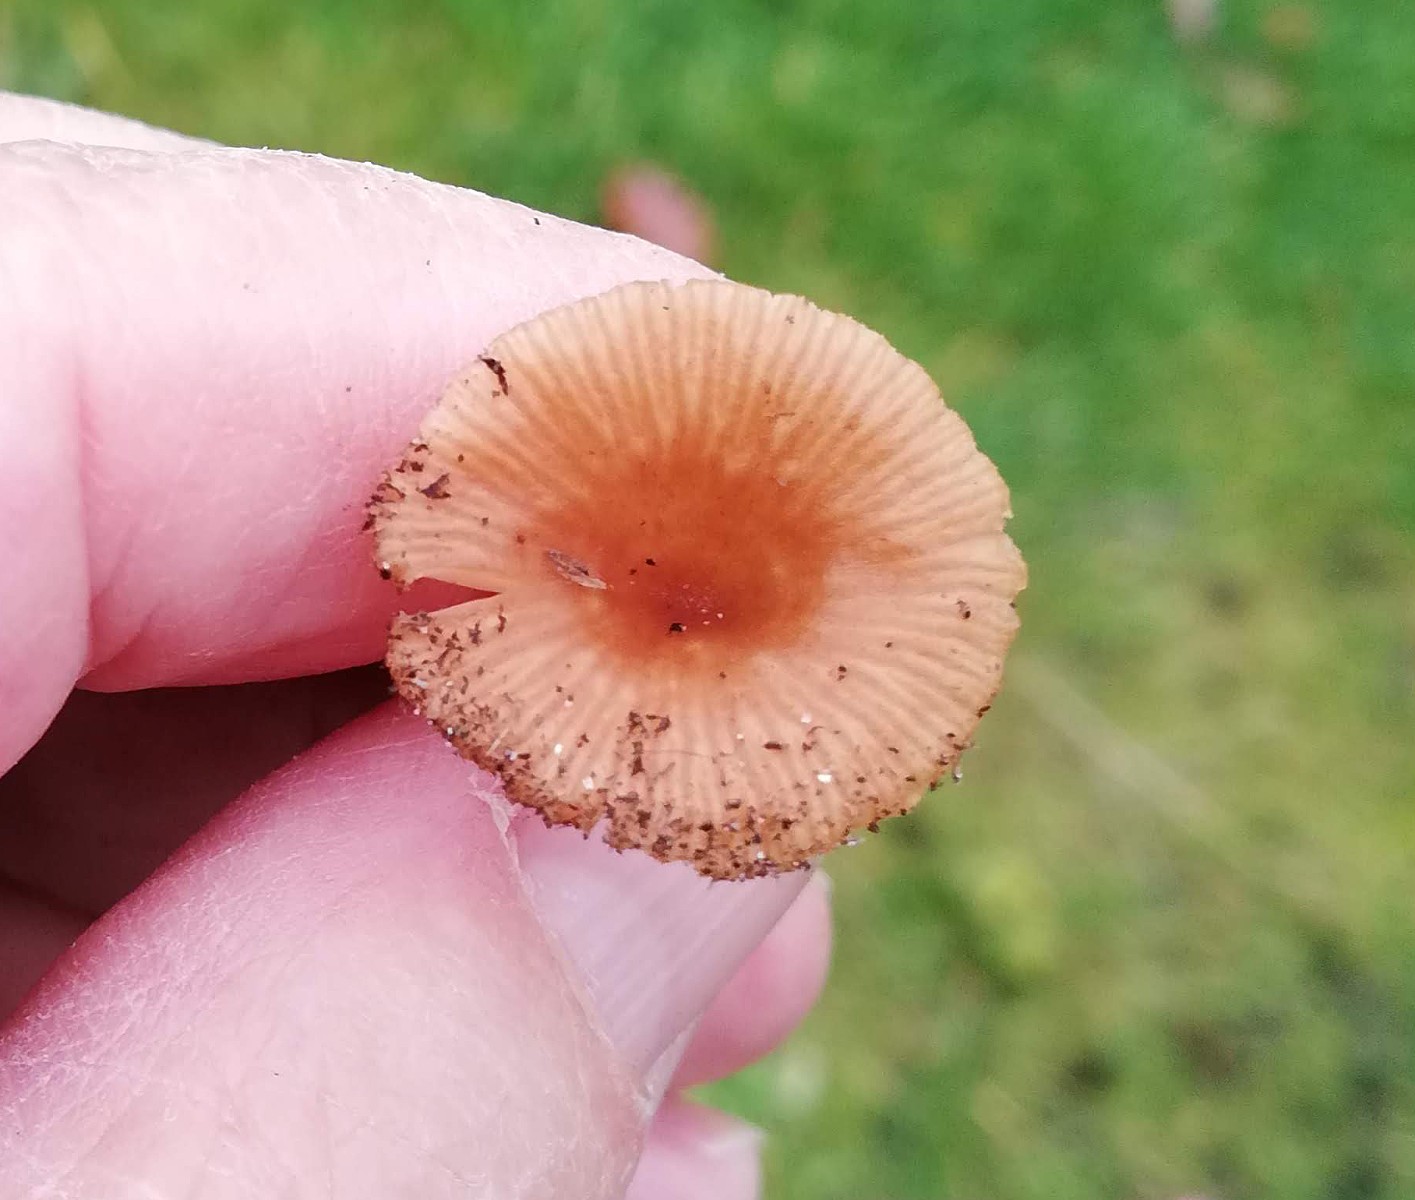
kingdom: Fungi
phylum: Basidiomycota
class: Agaricomycetes
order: Agaricales
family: Tricholomataceae
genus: Omphalina
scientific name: Omphalina pyxidata
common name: rødbrun navlehat
